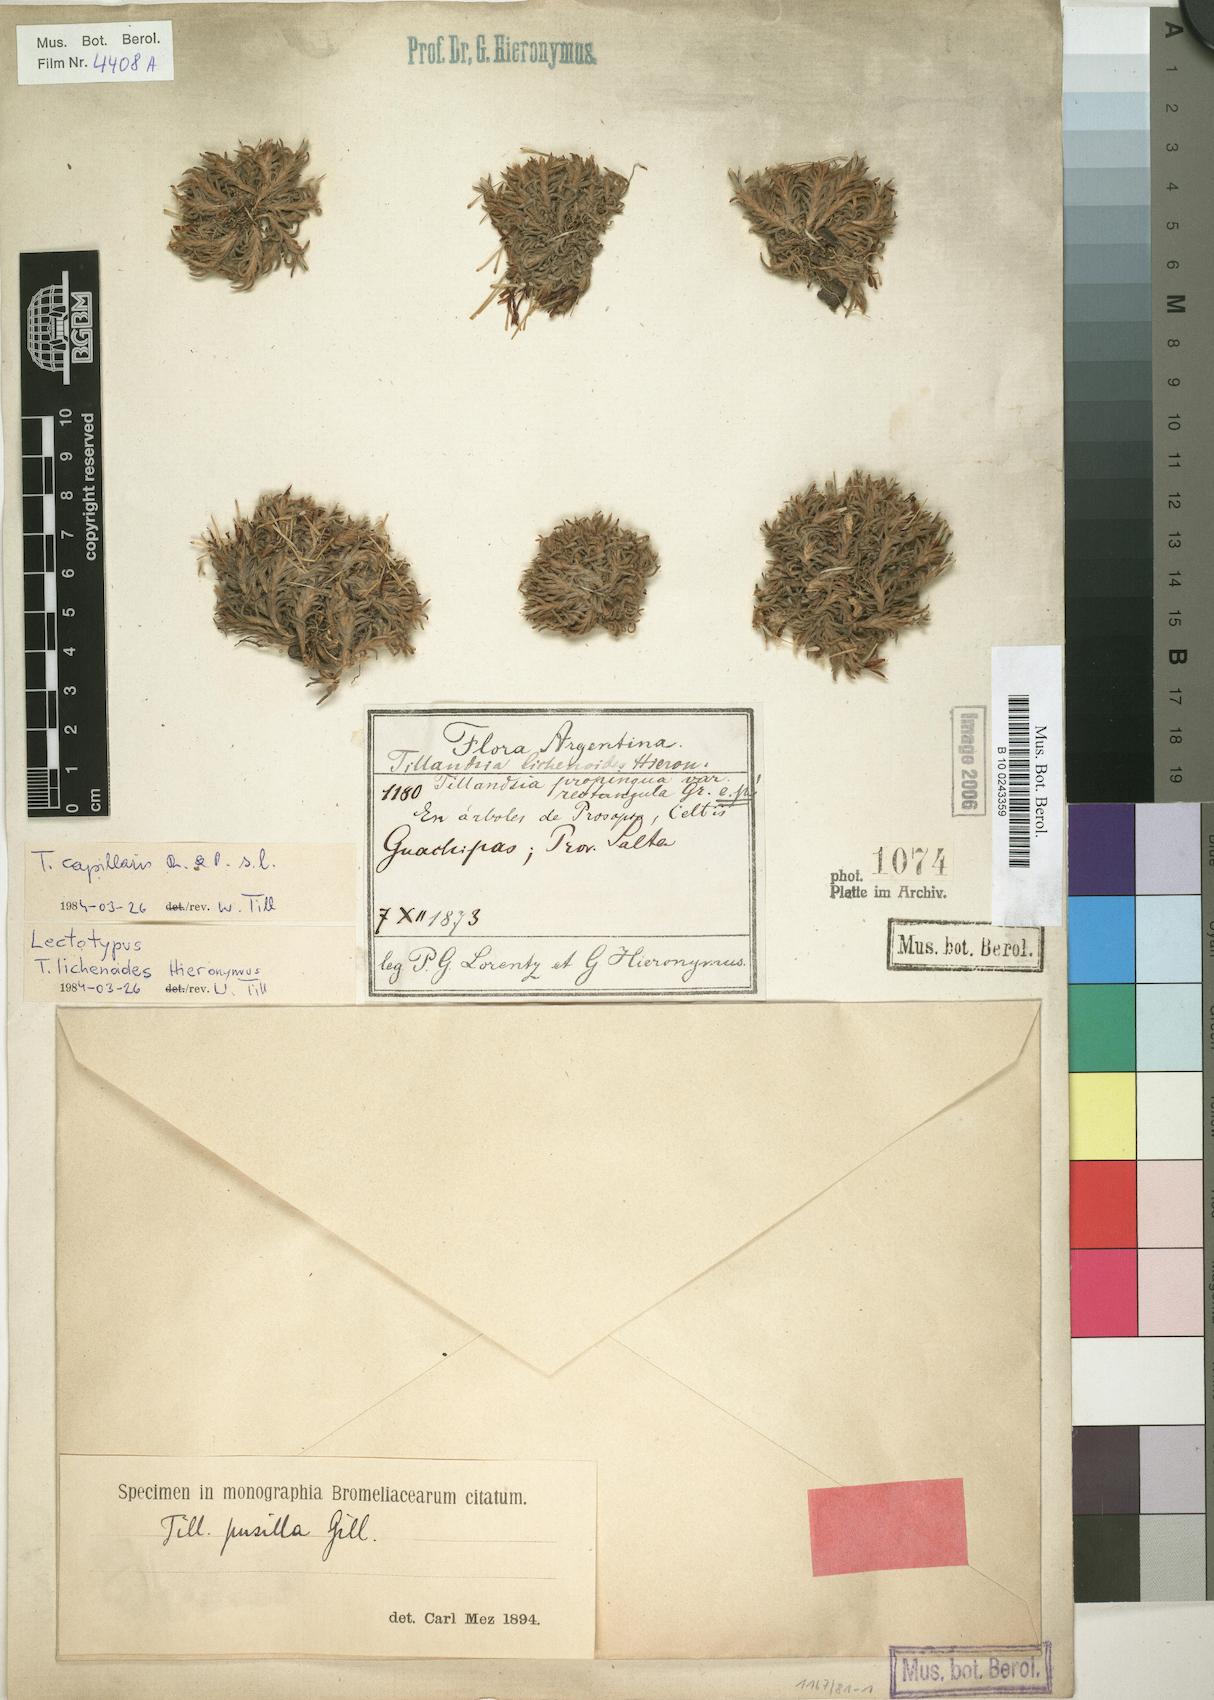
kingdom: Plantae
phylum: Tracheophyta
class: Liliopsida
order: Poales
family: Bromeliaceae
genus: Tillandsia
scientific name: Tillandsia capillaris
